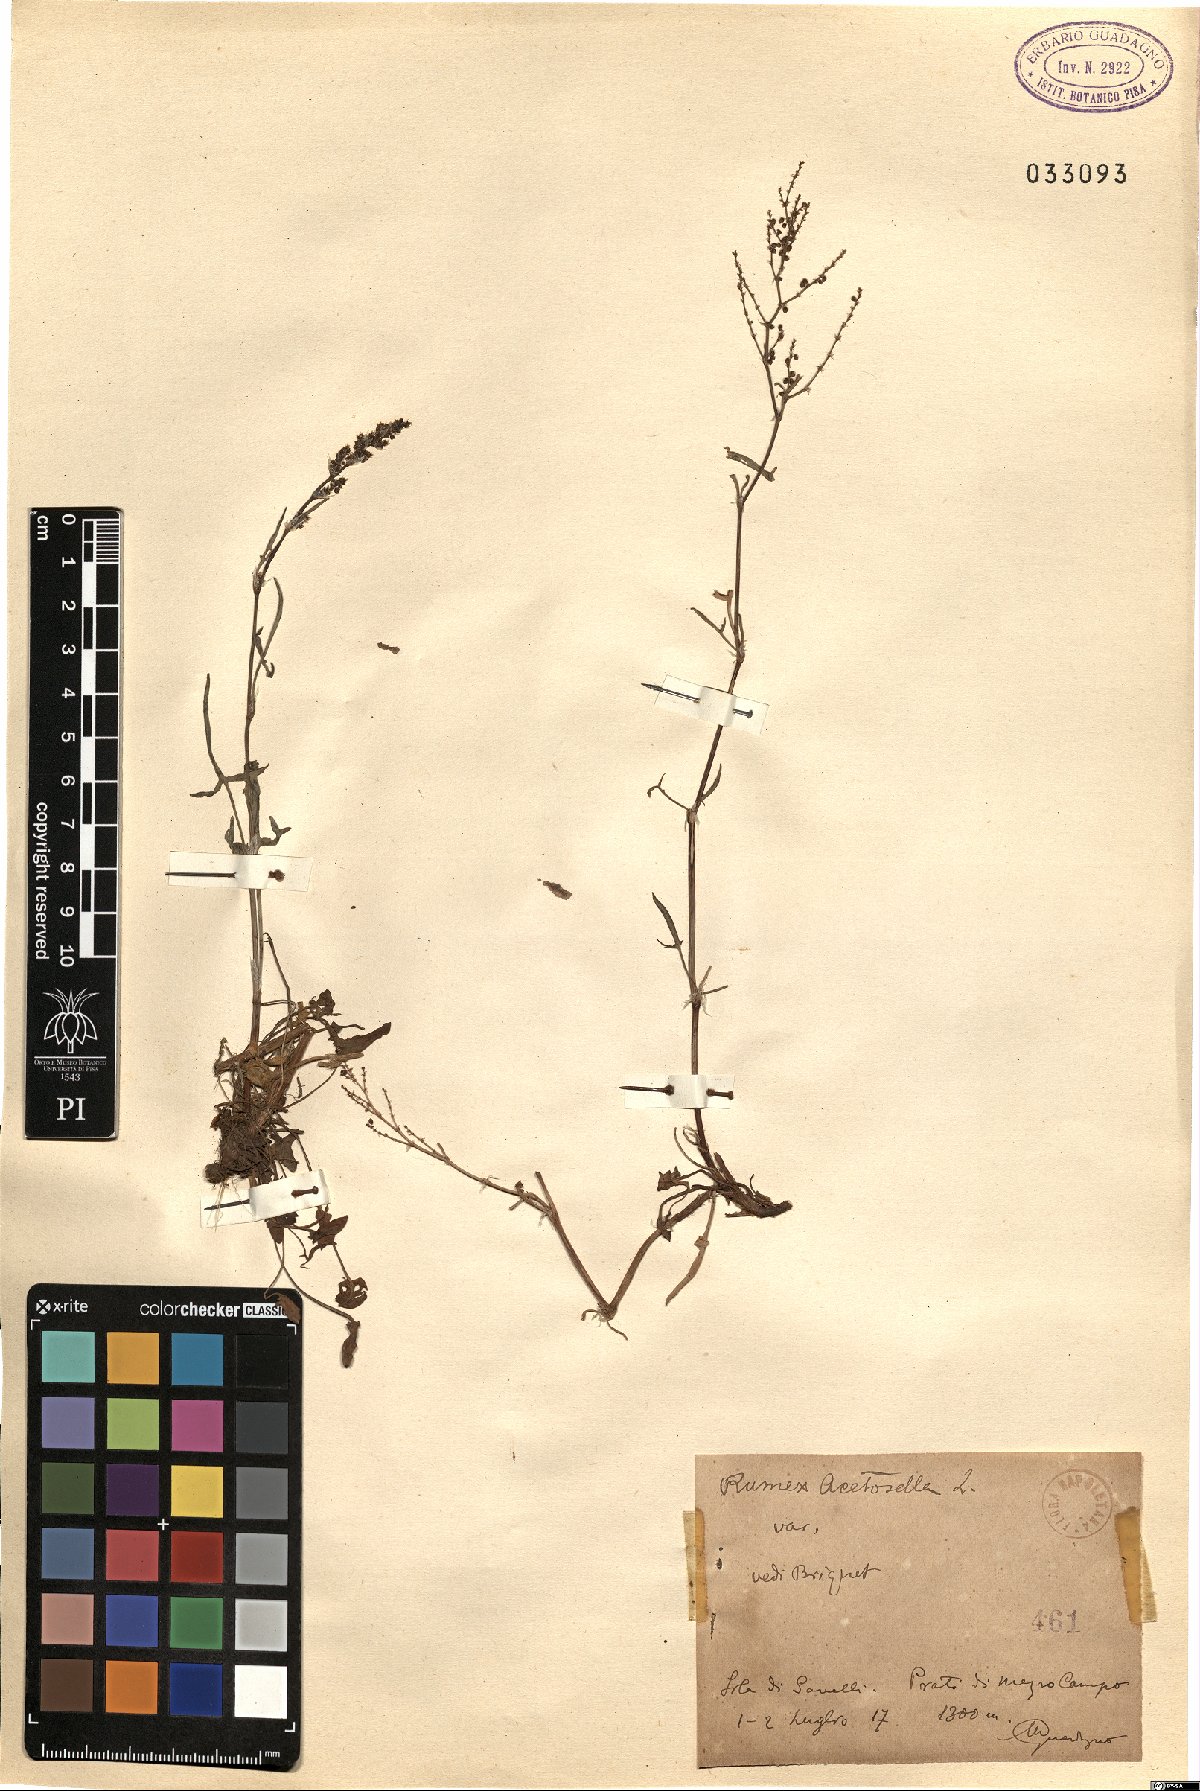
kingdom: Plantae
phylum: Tracheophyta
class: Magnoliopsida
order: Caryophyllales
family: Polygonaceae
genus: Rumex
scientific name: Rumex acetosella
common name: Common sheep sorrel
